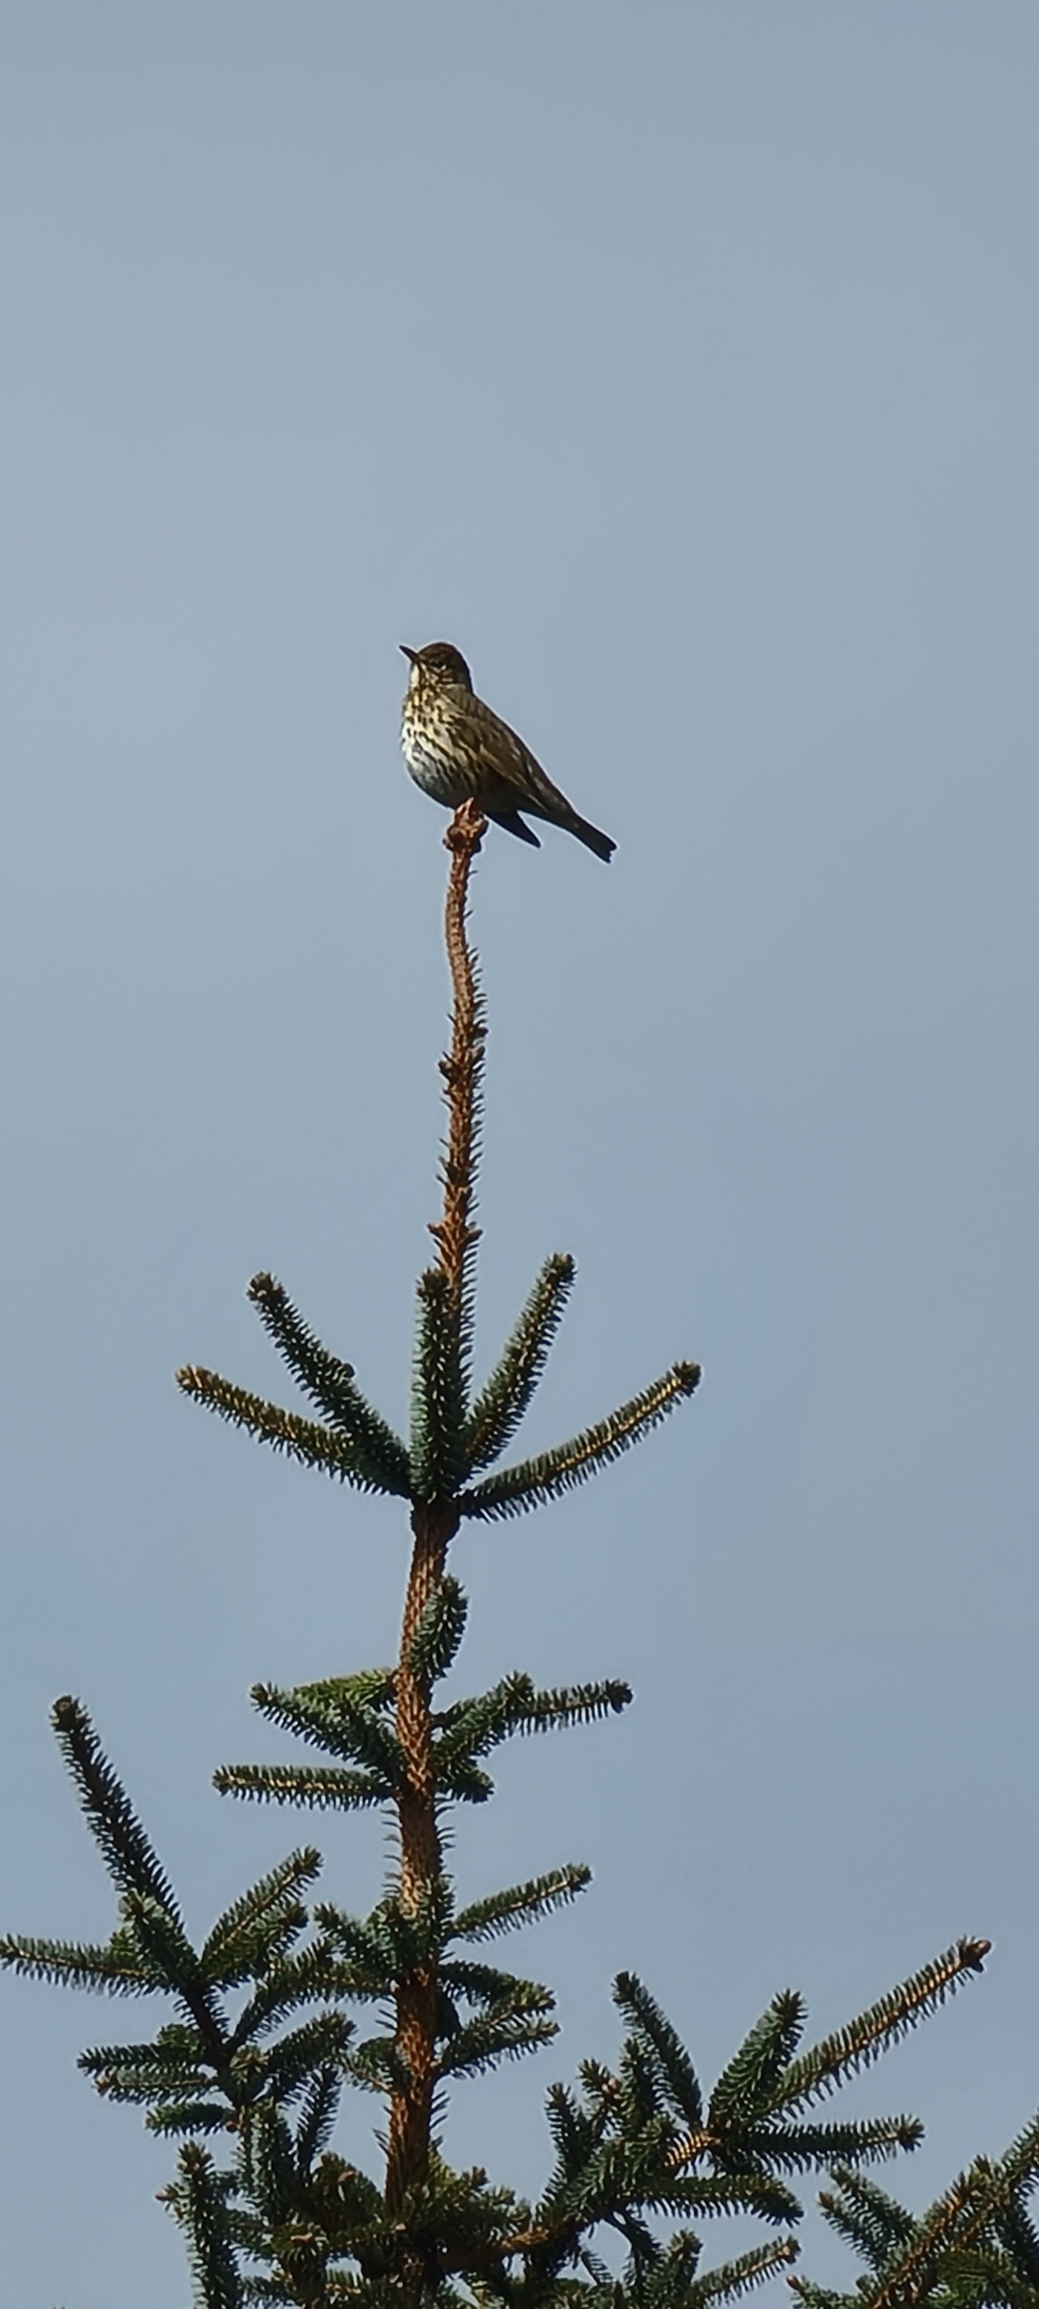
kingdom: Animalia
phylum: Chordata
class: Aves
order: Passeriformes
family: Turdidae
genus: Turdus
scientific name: Turdus philomelos
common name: Sangdrossel
